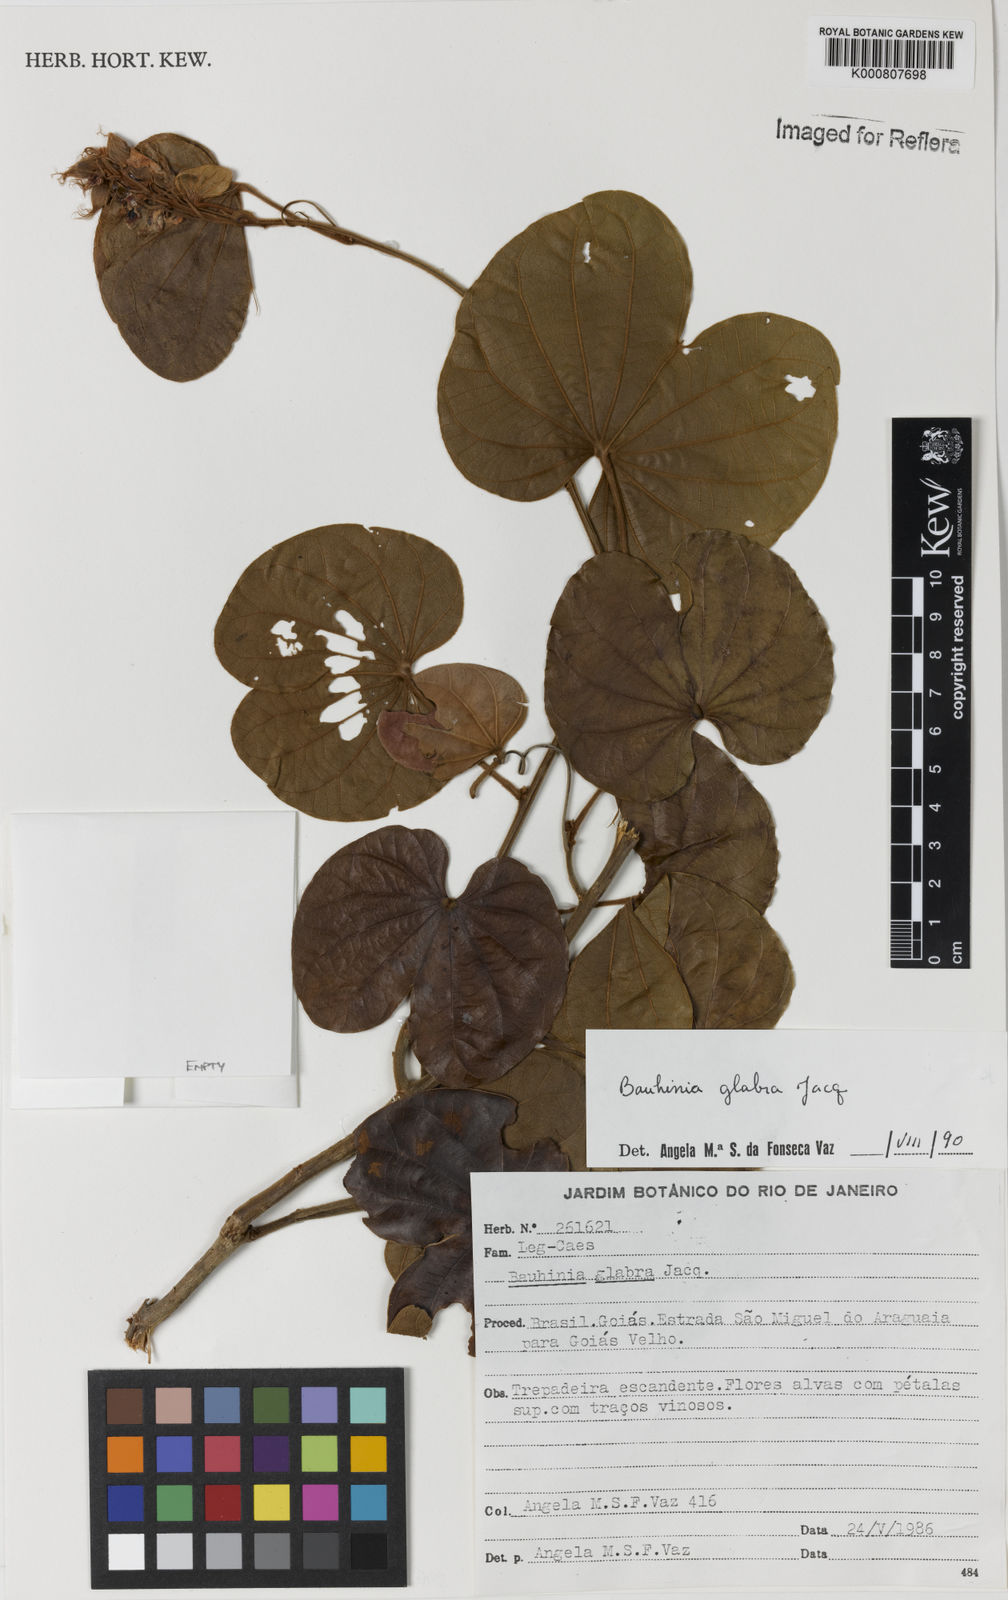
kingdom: Plantae
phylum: Tracheophyta
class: Magnoliopsida
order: Fabales
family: Fabaceae
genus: Schnella
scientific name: Schnella glabra
